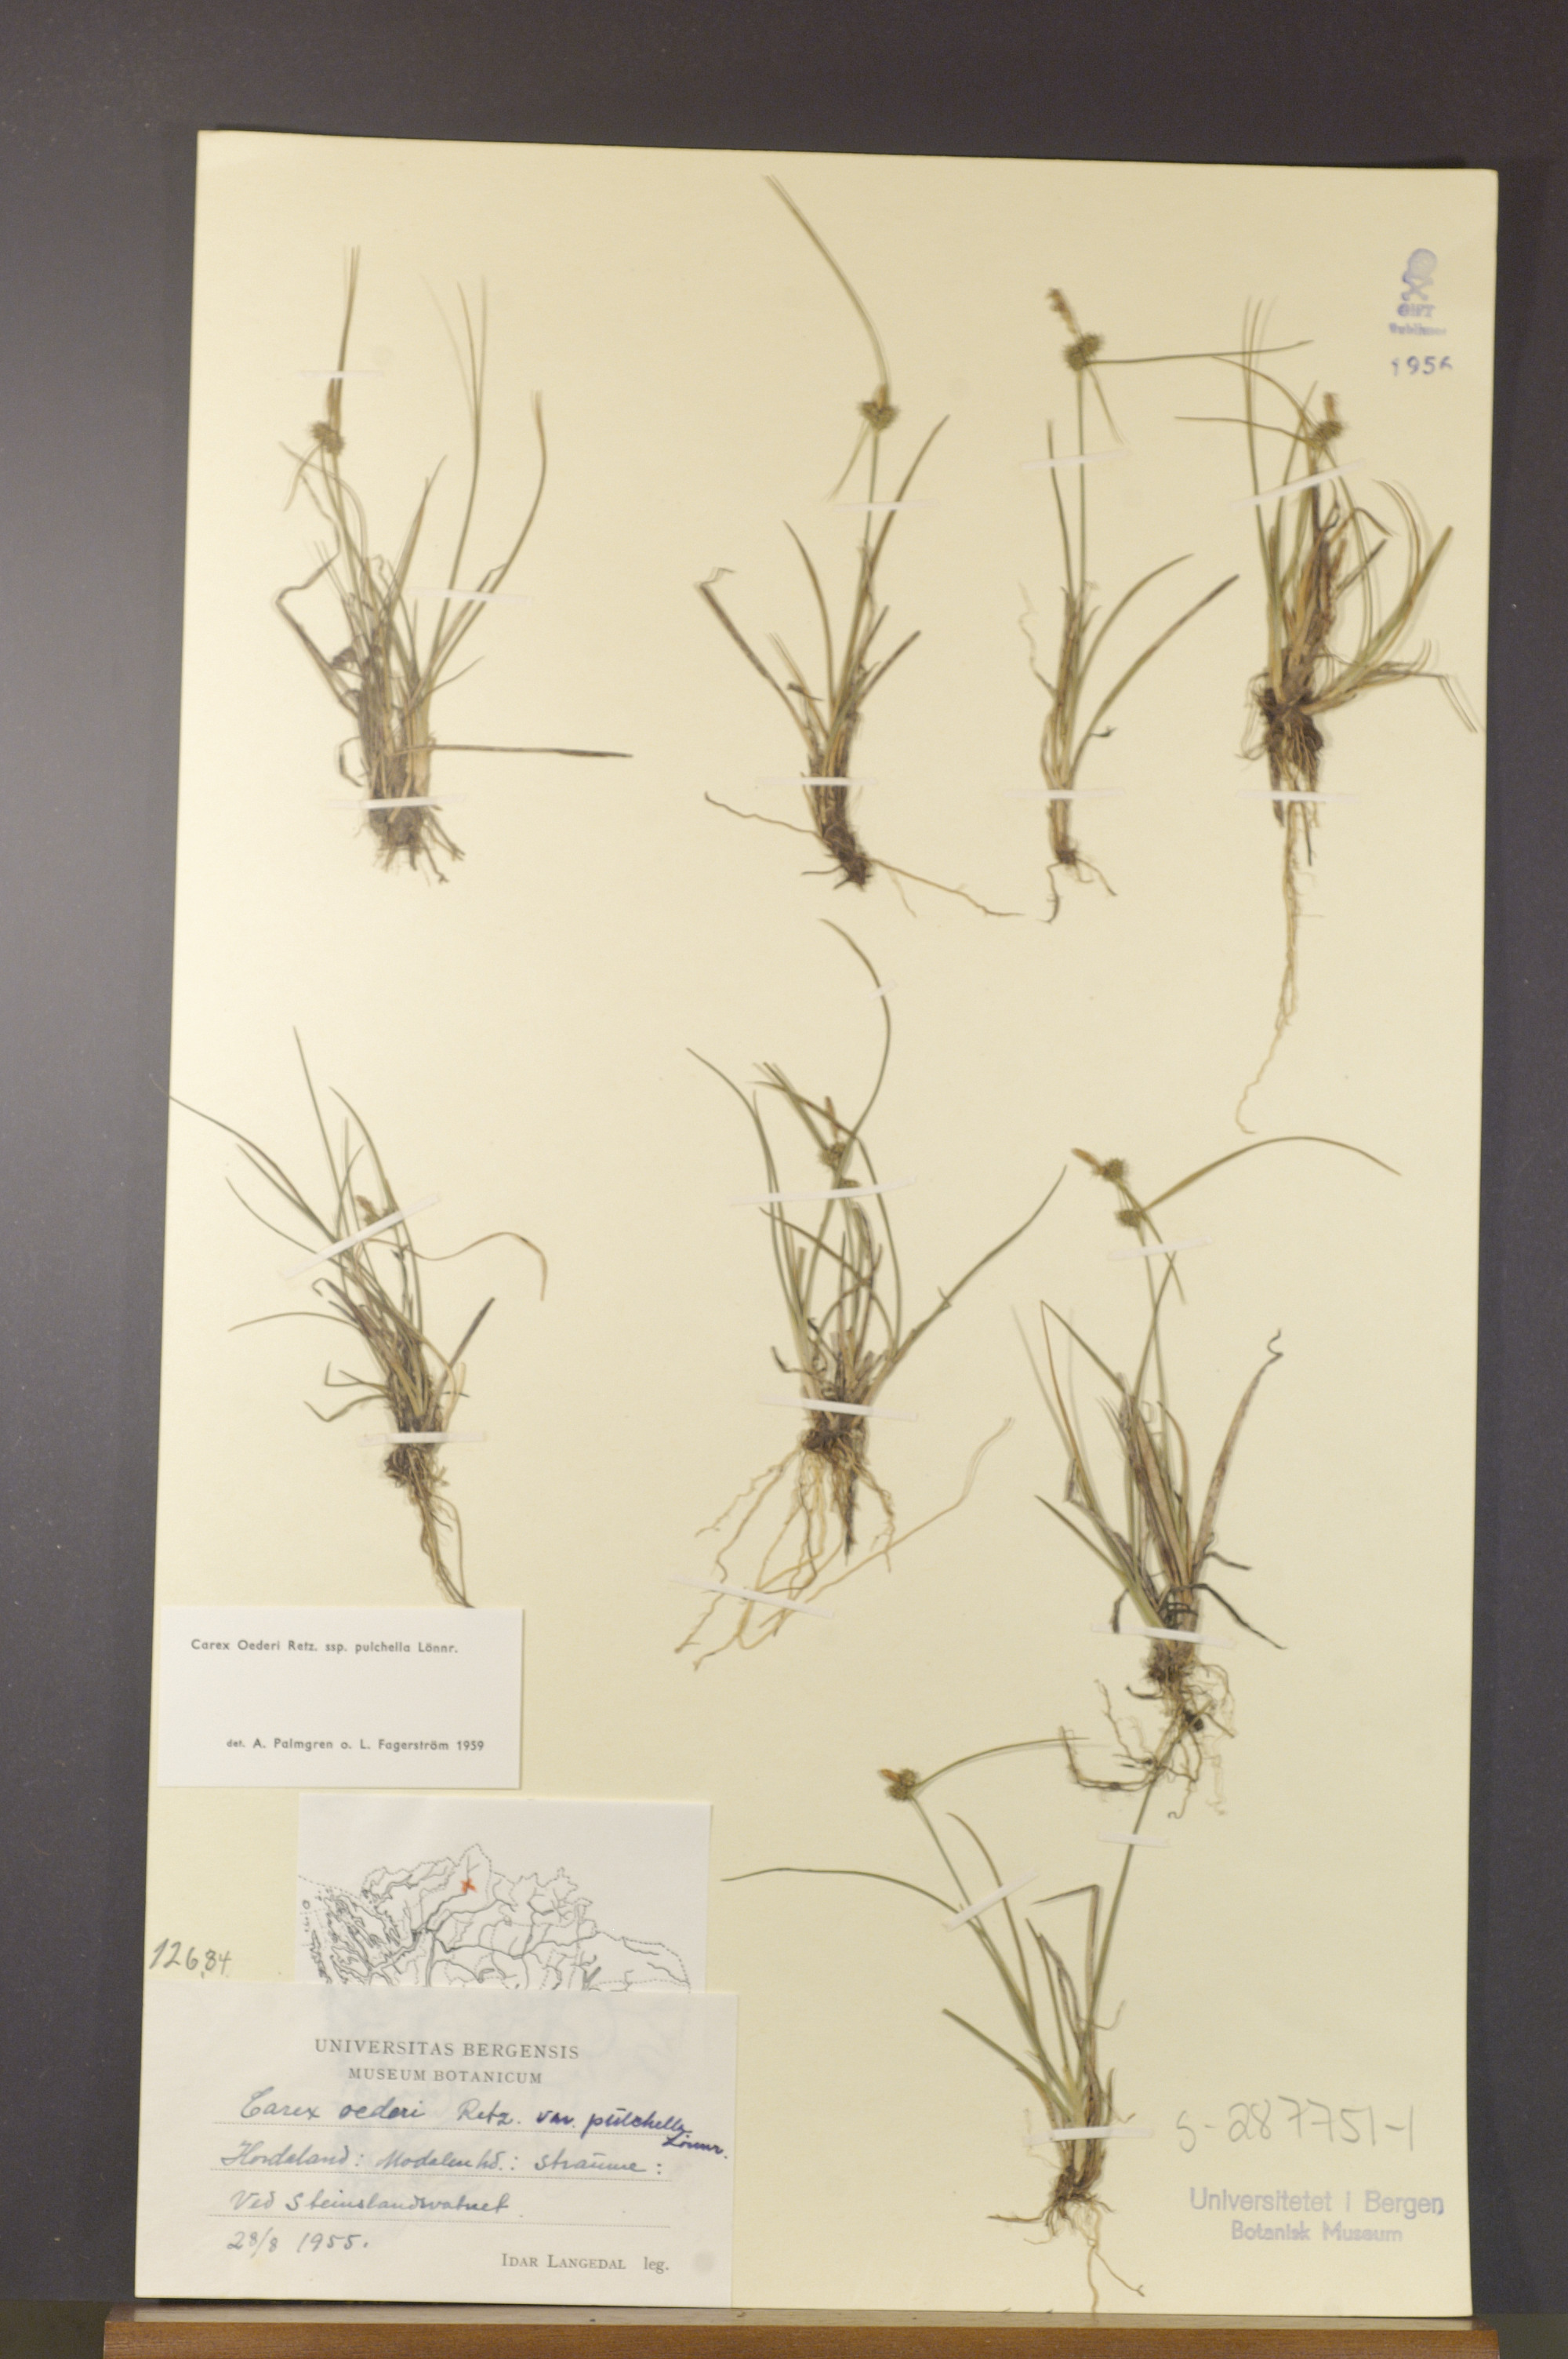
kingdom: Plantae
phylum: Tracheophyta
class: Liliopsida
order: Poales
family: Cyperaceae
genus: Carex
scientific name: Carex oederi
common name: Common & small-fruited yellow-sedge
